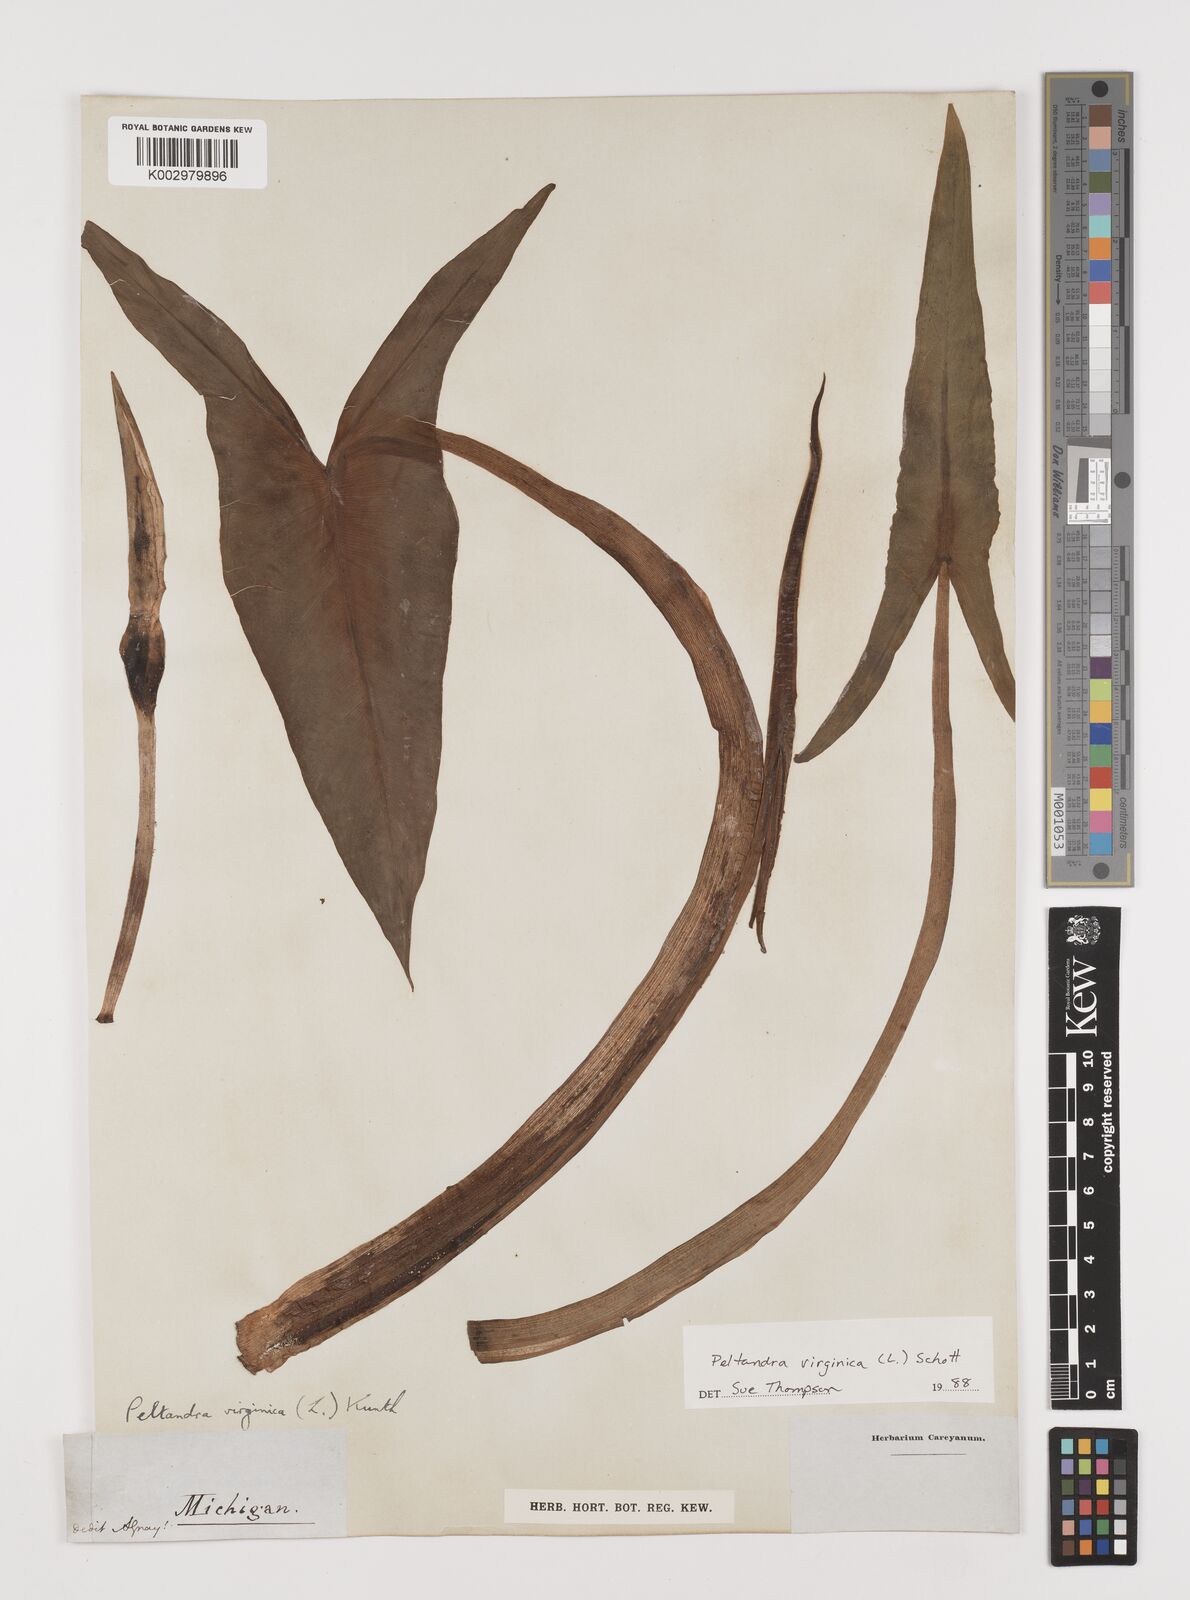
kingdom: Plantae
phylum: Tracheophyta
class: Liliopsida
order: Alismatales
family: Araceae
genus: Peltandra
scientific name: Peltandra virginica
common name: Arrow arum
